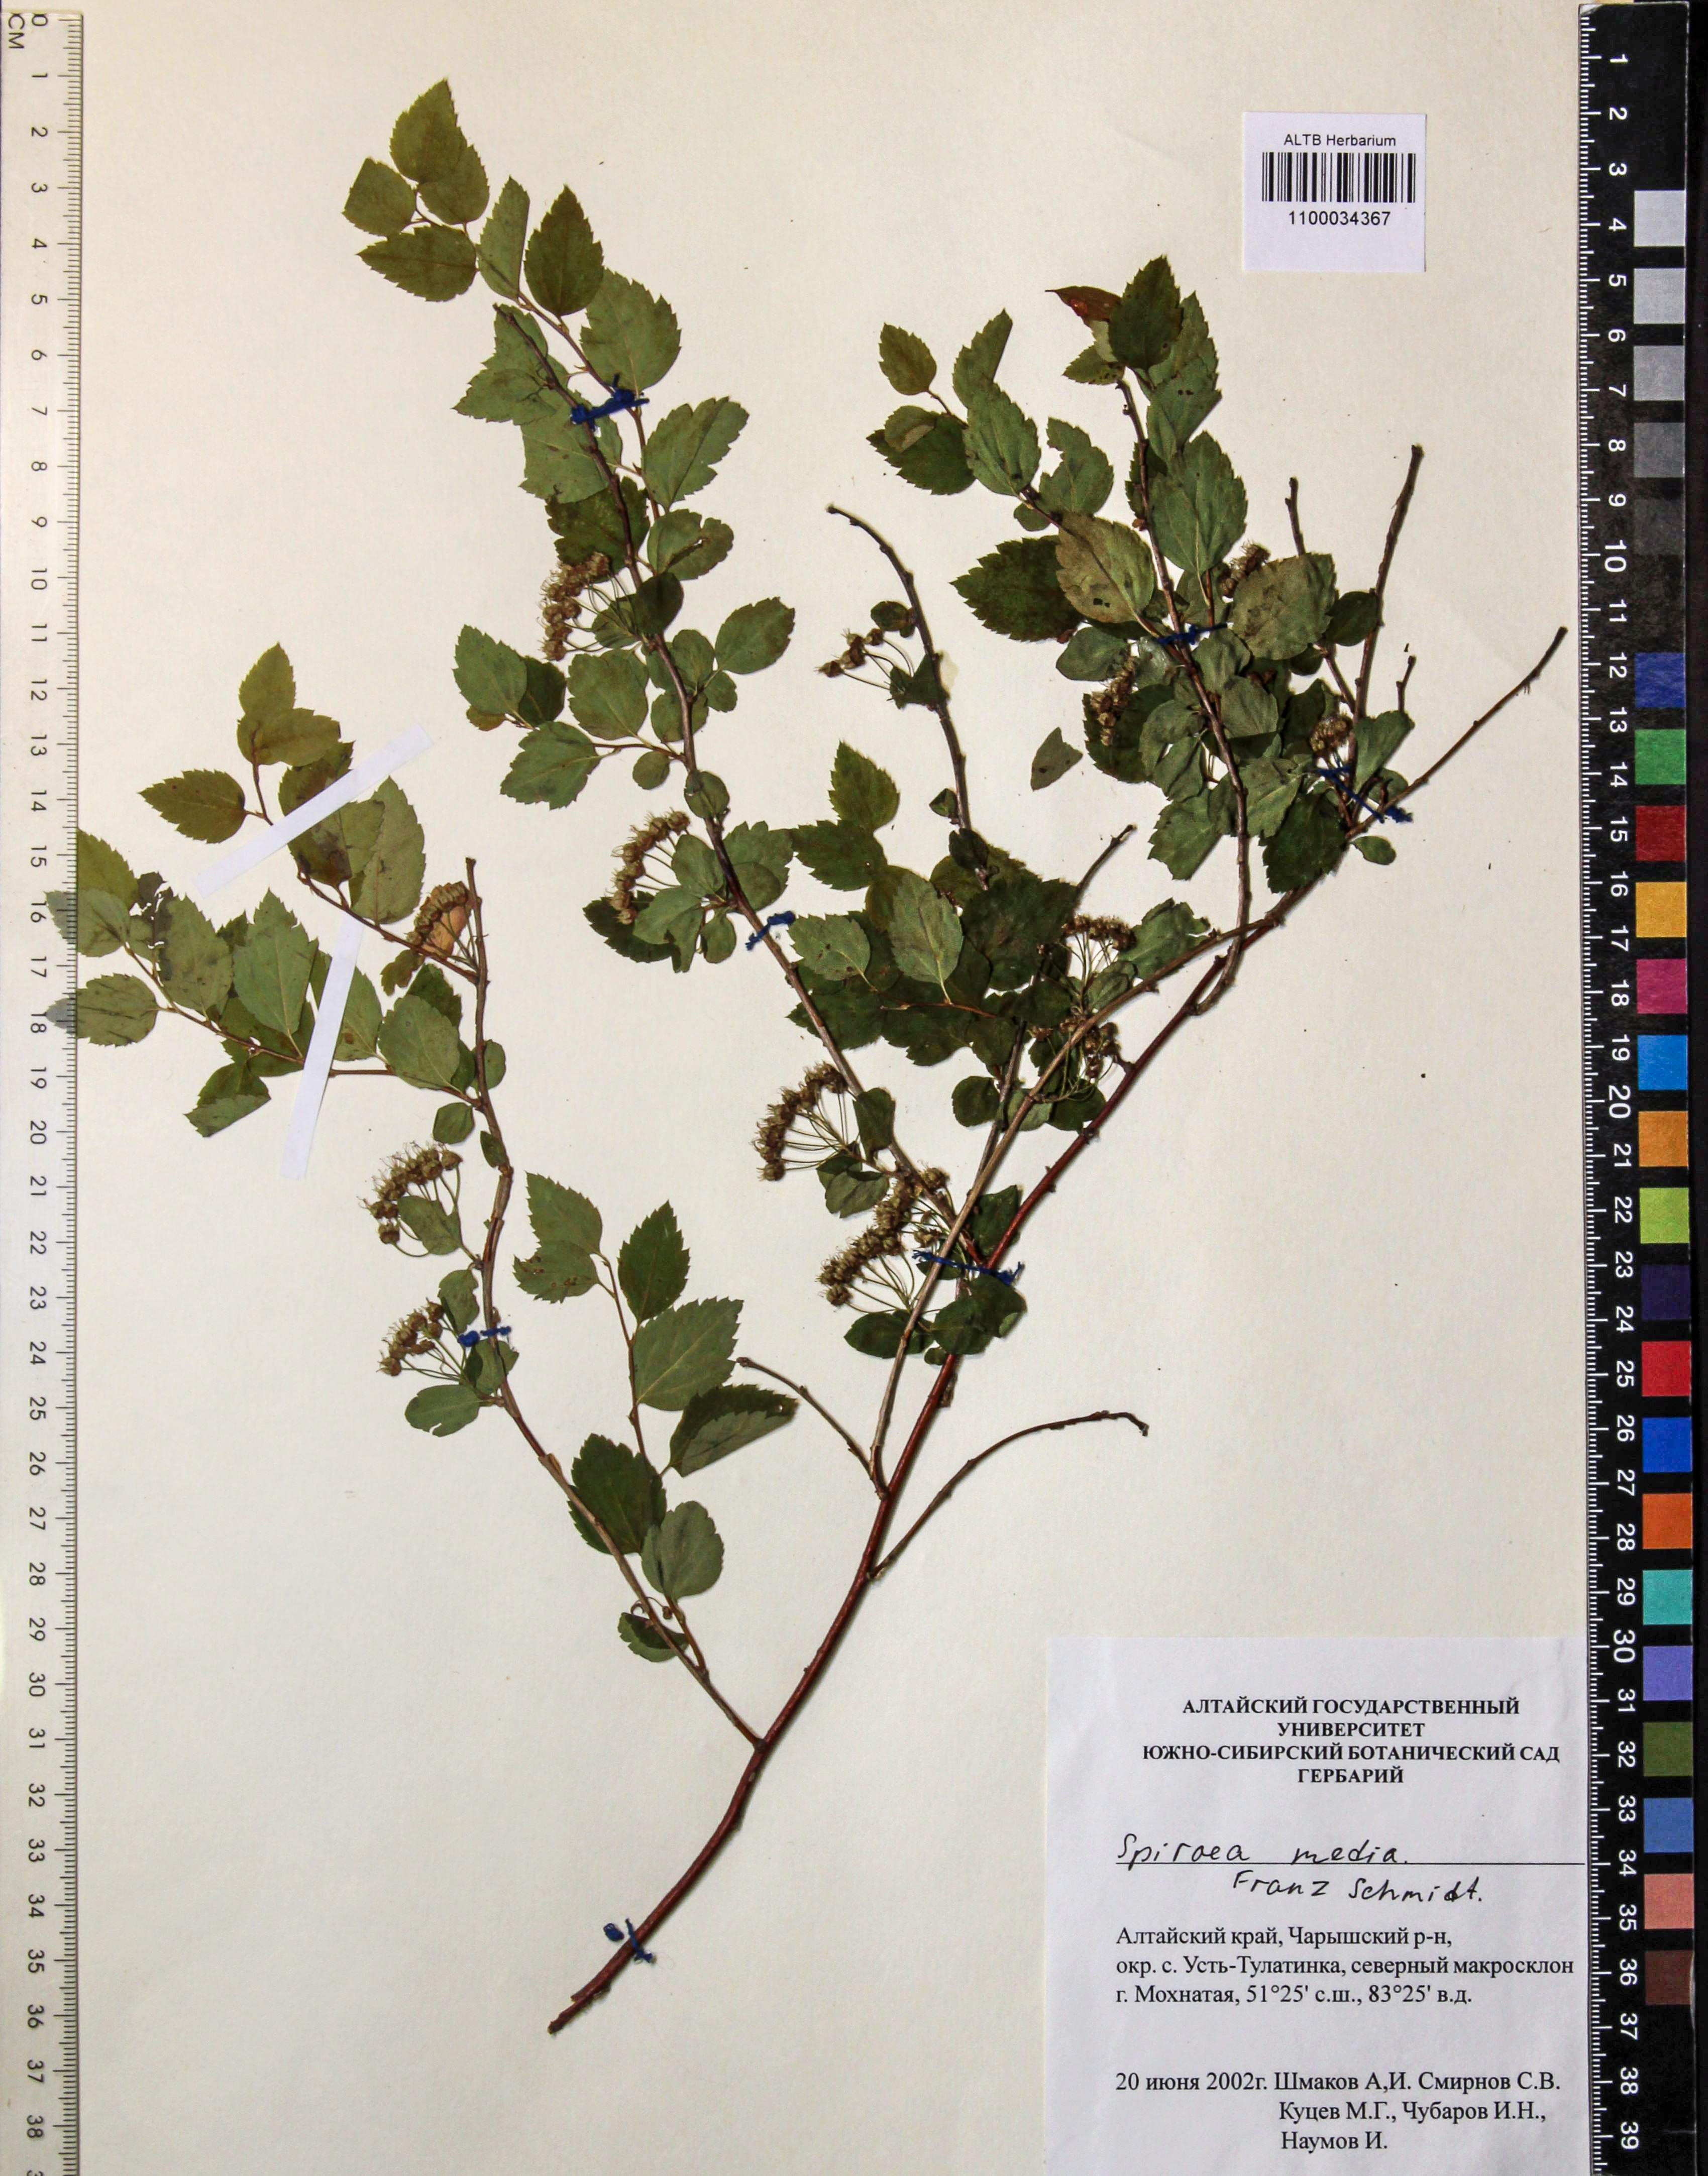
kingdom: Plantae
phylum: Tracheophyta
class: Magnoliopsida
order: Rosales
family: Rosaceae
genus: Spiraea
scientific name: Spiraea media
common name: Russian spiraea
